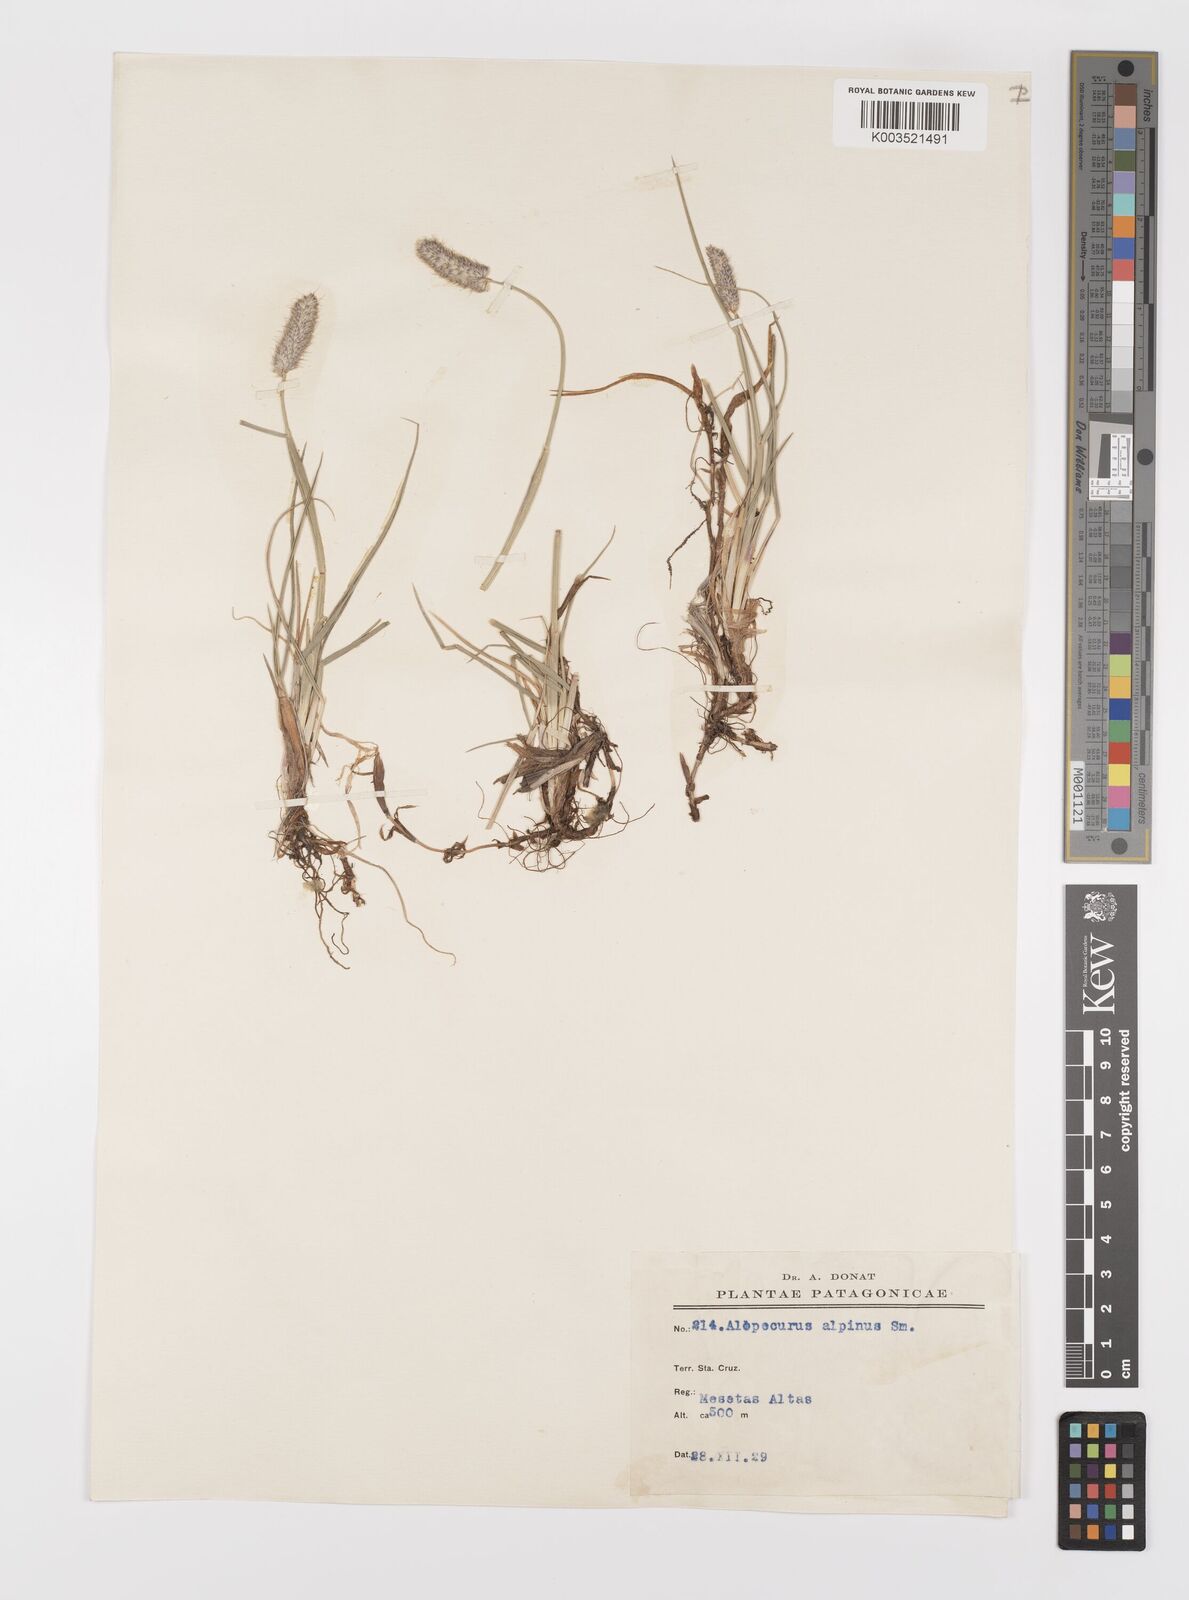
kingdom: Plantae
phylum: Tracheophyta
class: Liliopsida
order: Poales
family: Poaceae
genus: Alopecurus
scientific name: Alopecurus magellanicus
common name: Alpine foxtail
